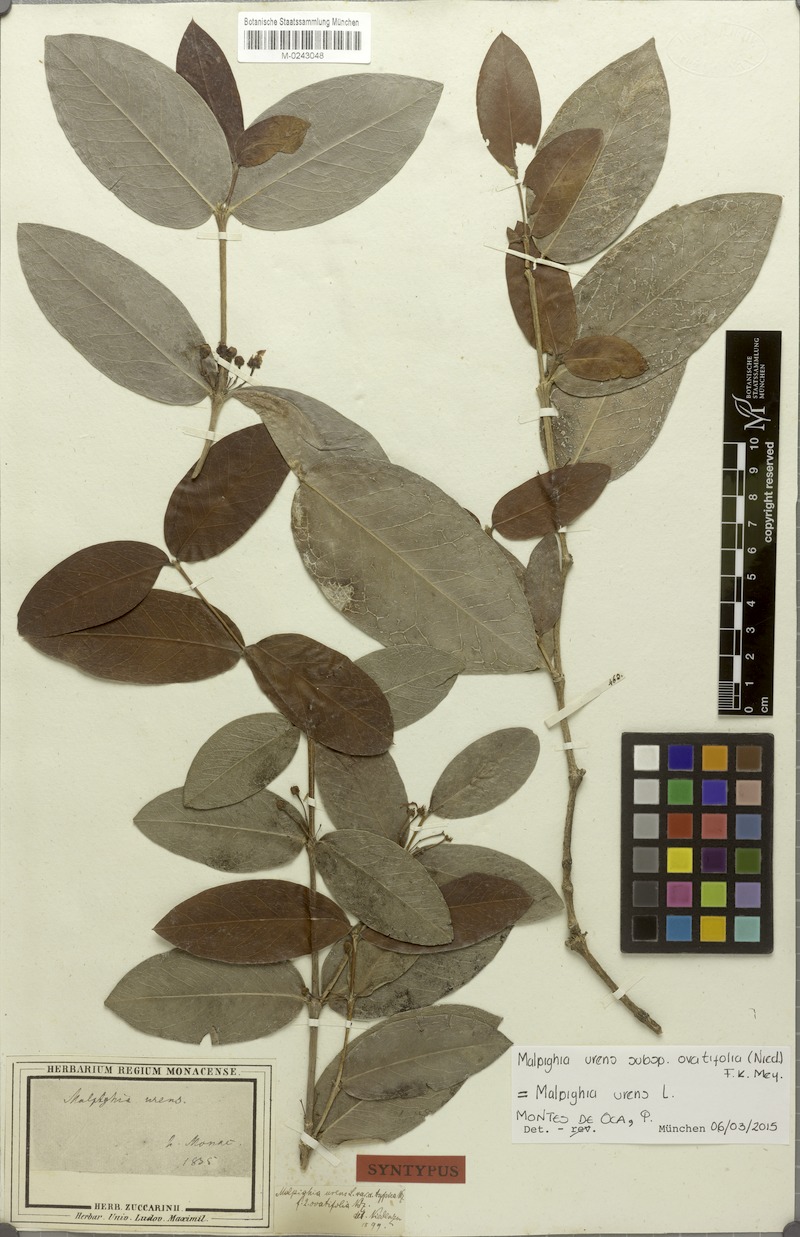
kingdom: Plantae
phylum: Tracheophyta
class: Magnoliopsida
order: Malpighiales
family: Malpighiaceae
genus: Malpighia
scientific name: Malpighia urens
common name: Cow-itch-cherry
